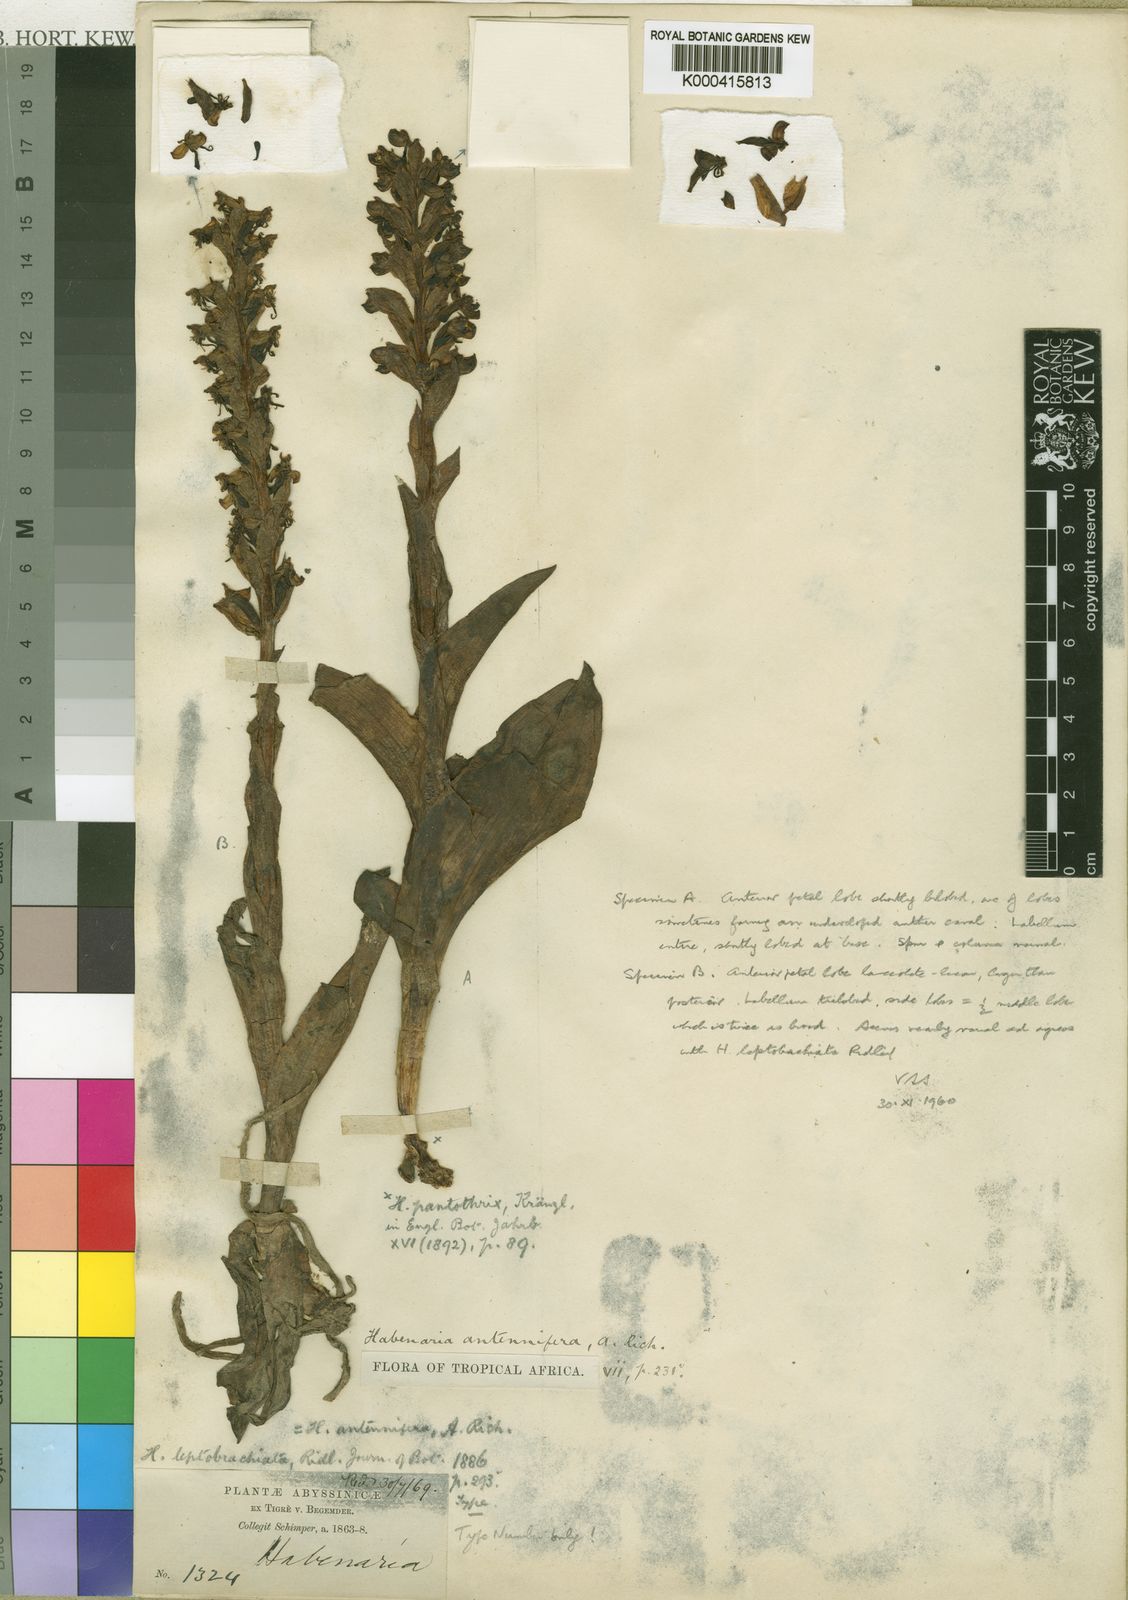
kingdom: Plantae
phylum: Tracheophyta
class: Liliopsida
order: Asparagales
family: Orchidaceae
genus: Habenaria
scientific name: Habenaria antennifera
